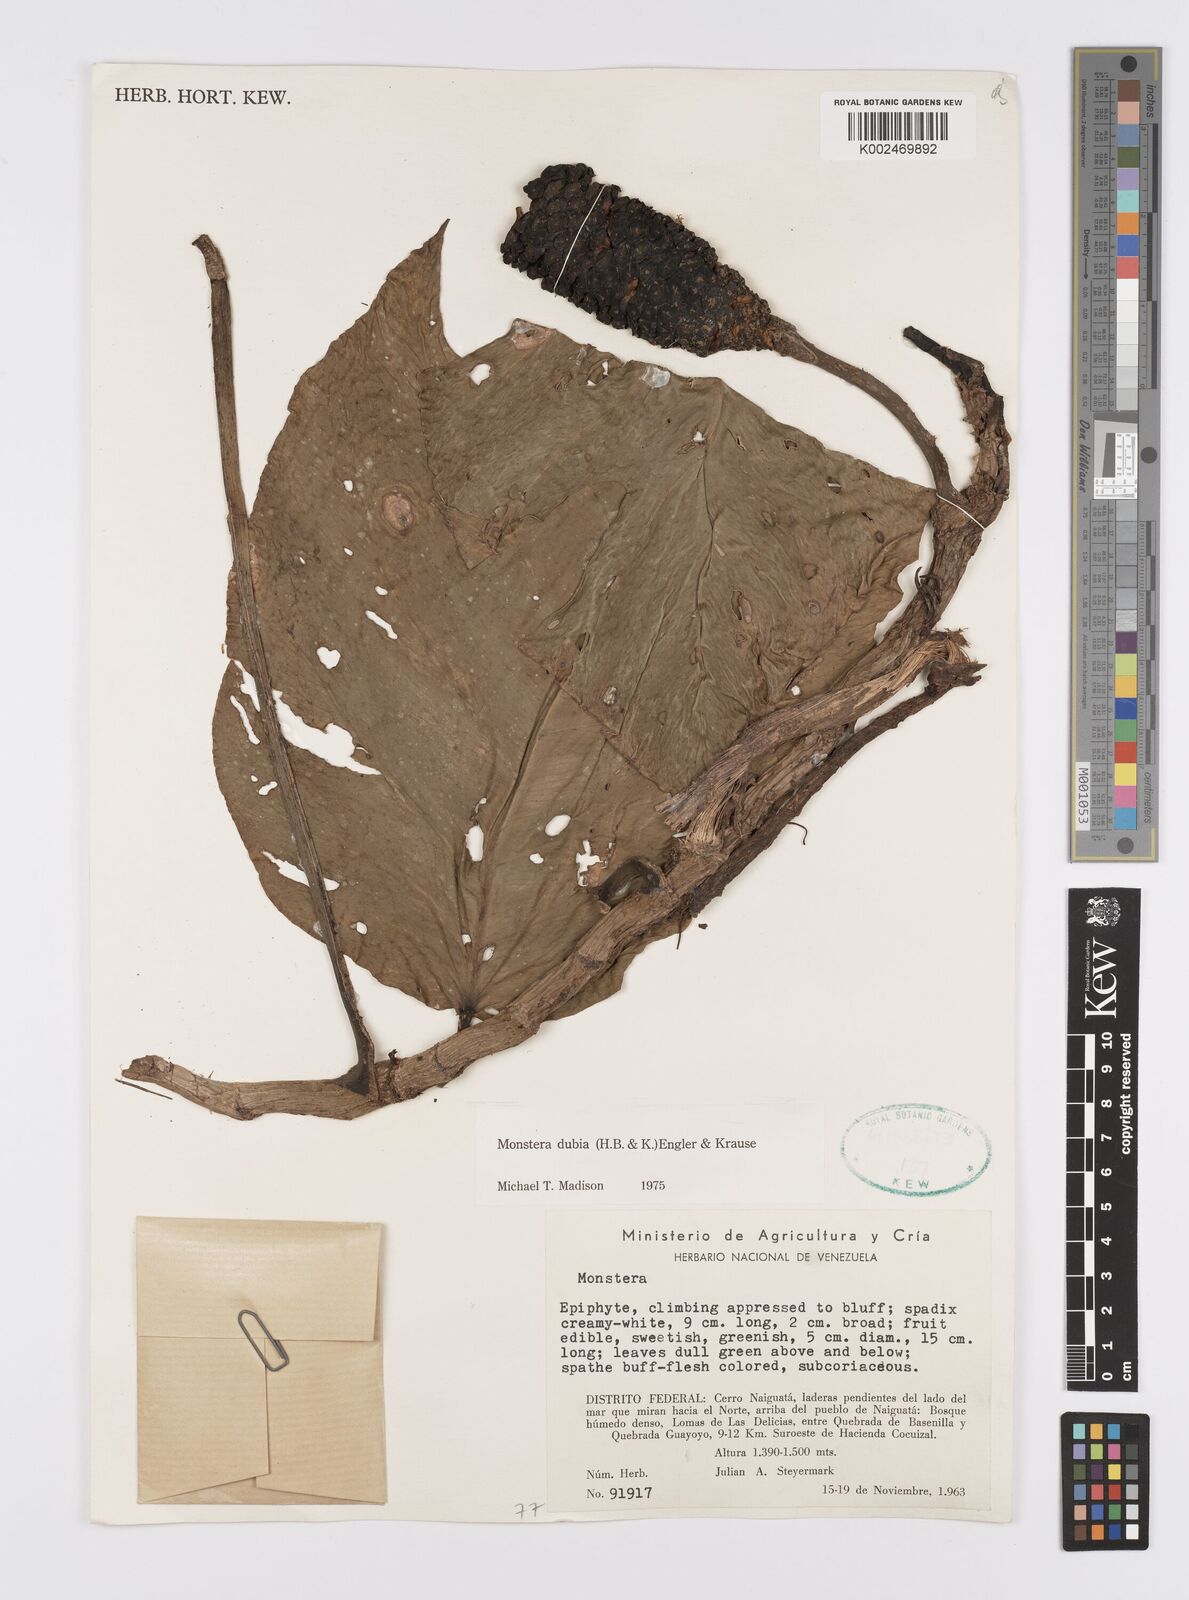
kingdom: Plantae
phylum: Tracheophyta
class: Liliopsida
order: Alismatales
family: Araceae
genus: Monstera
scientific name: Monstera dubia
